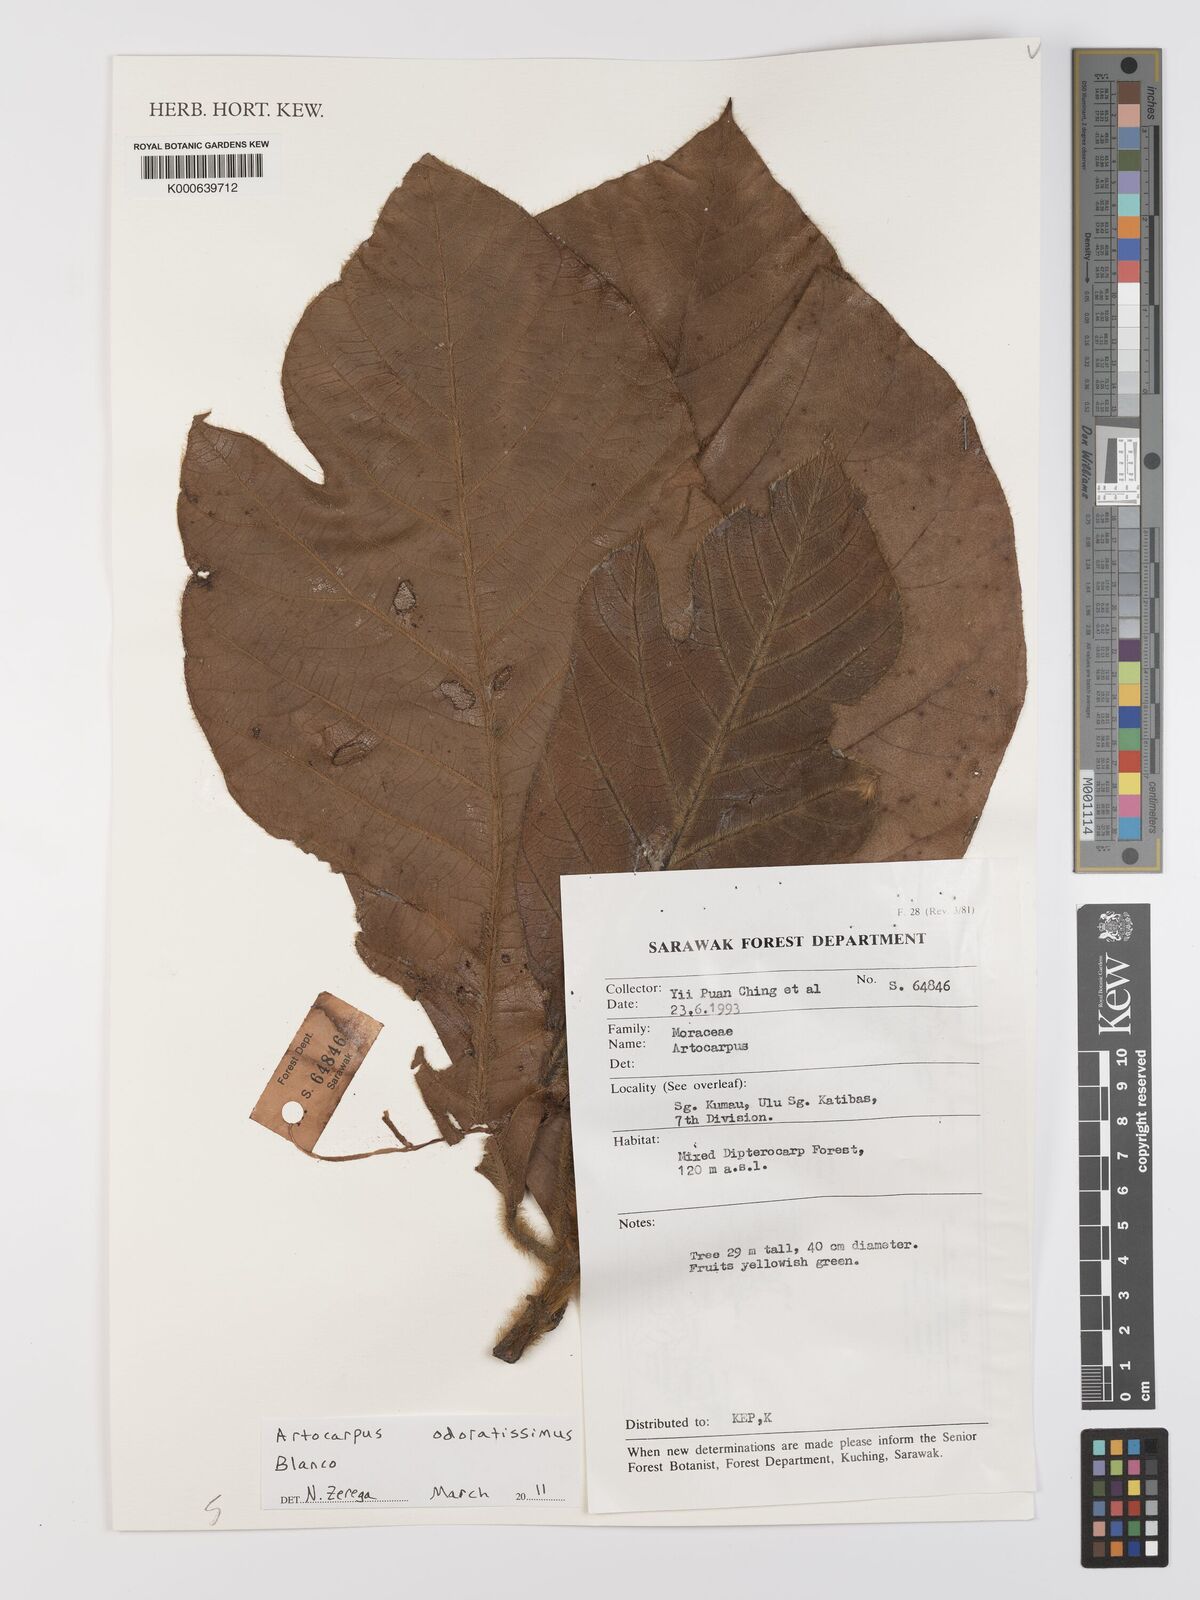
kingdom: Plantae
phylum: Tracheophyta
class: Magnoliopsida
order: Rosales
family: Moraceae
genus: Artocarpus
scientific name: Artocarpus odoratissimus
